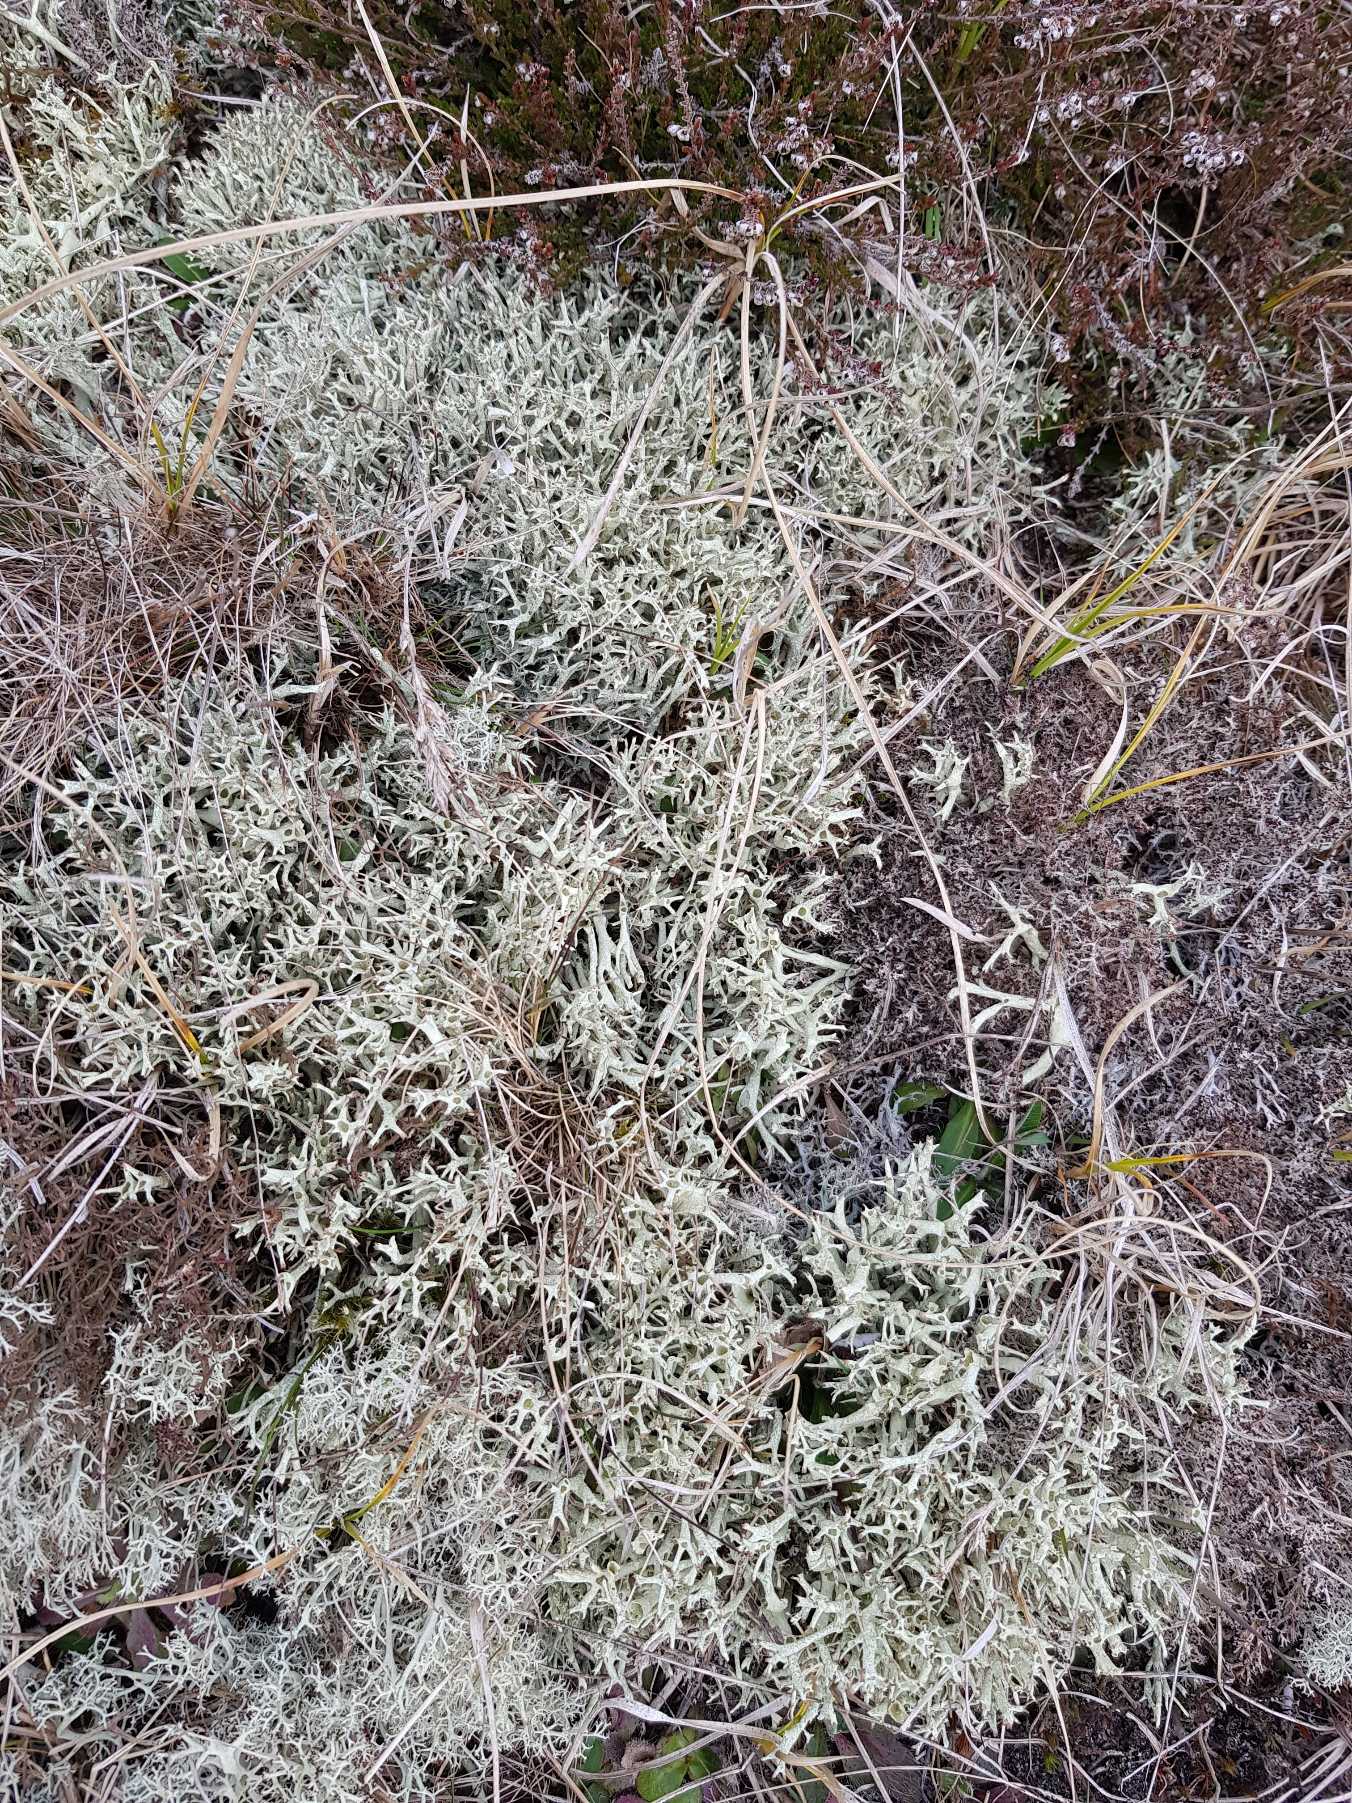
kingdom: Fungi
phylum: Ascomycota
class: Lecanoromycetes
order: Lecanorales
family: Cladoniaceae
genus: Cladonia
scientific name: Cladonia uncialis
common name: Pigget bægerlav
